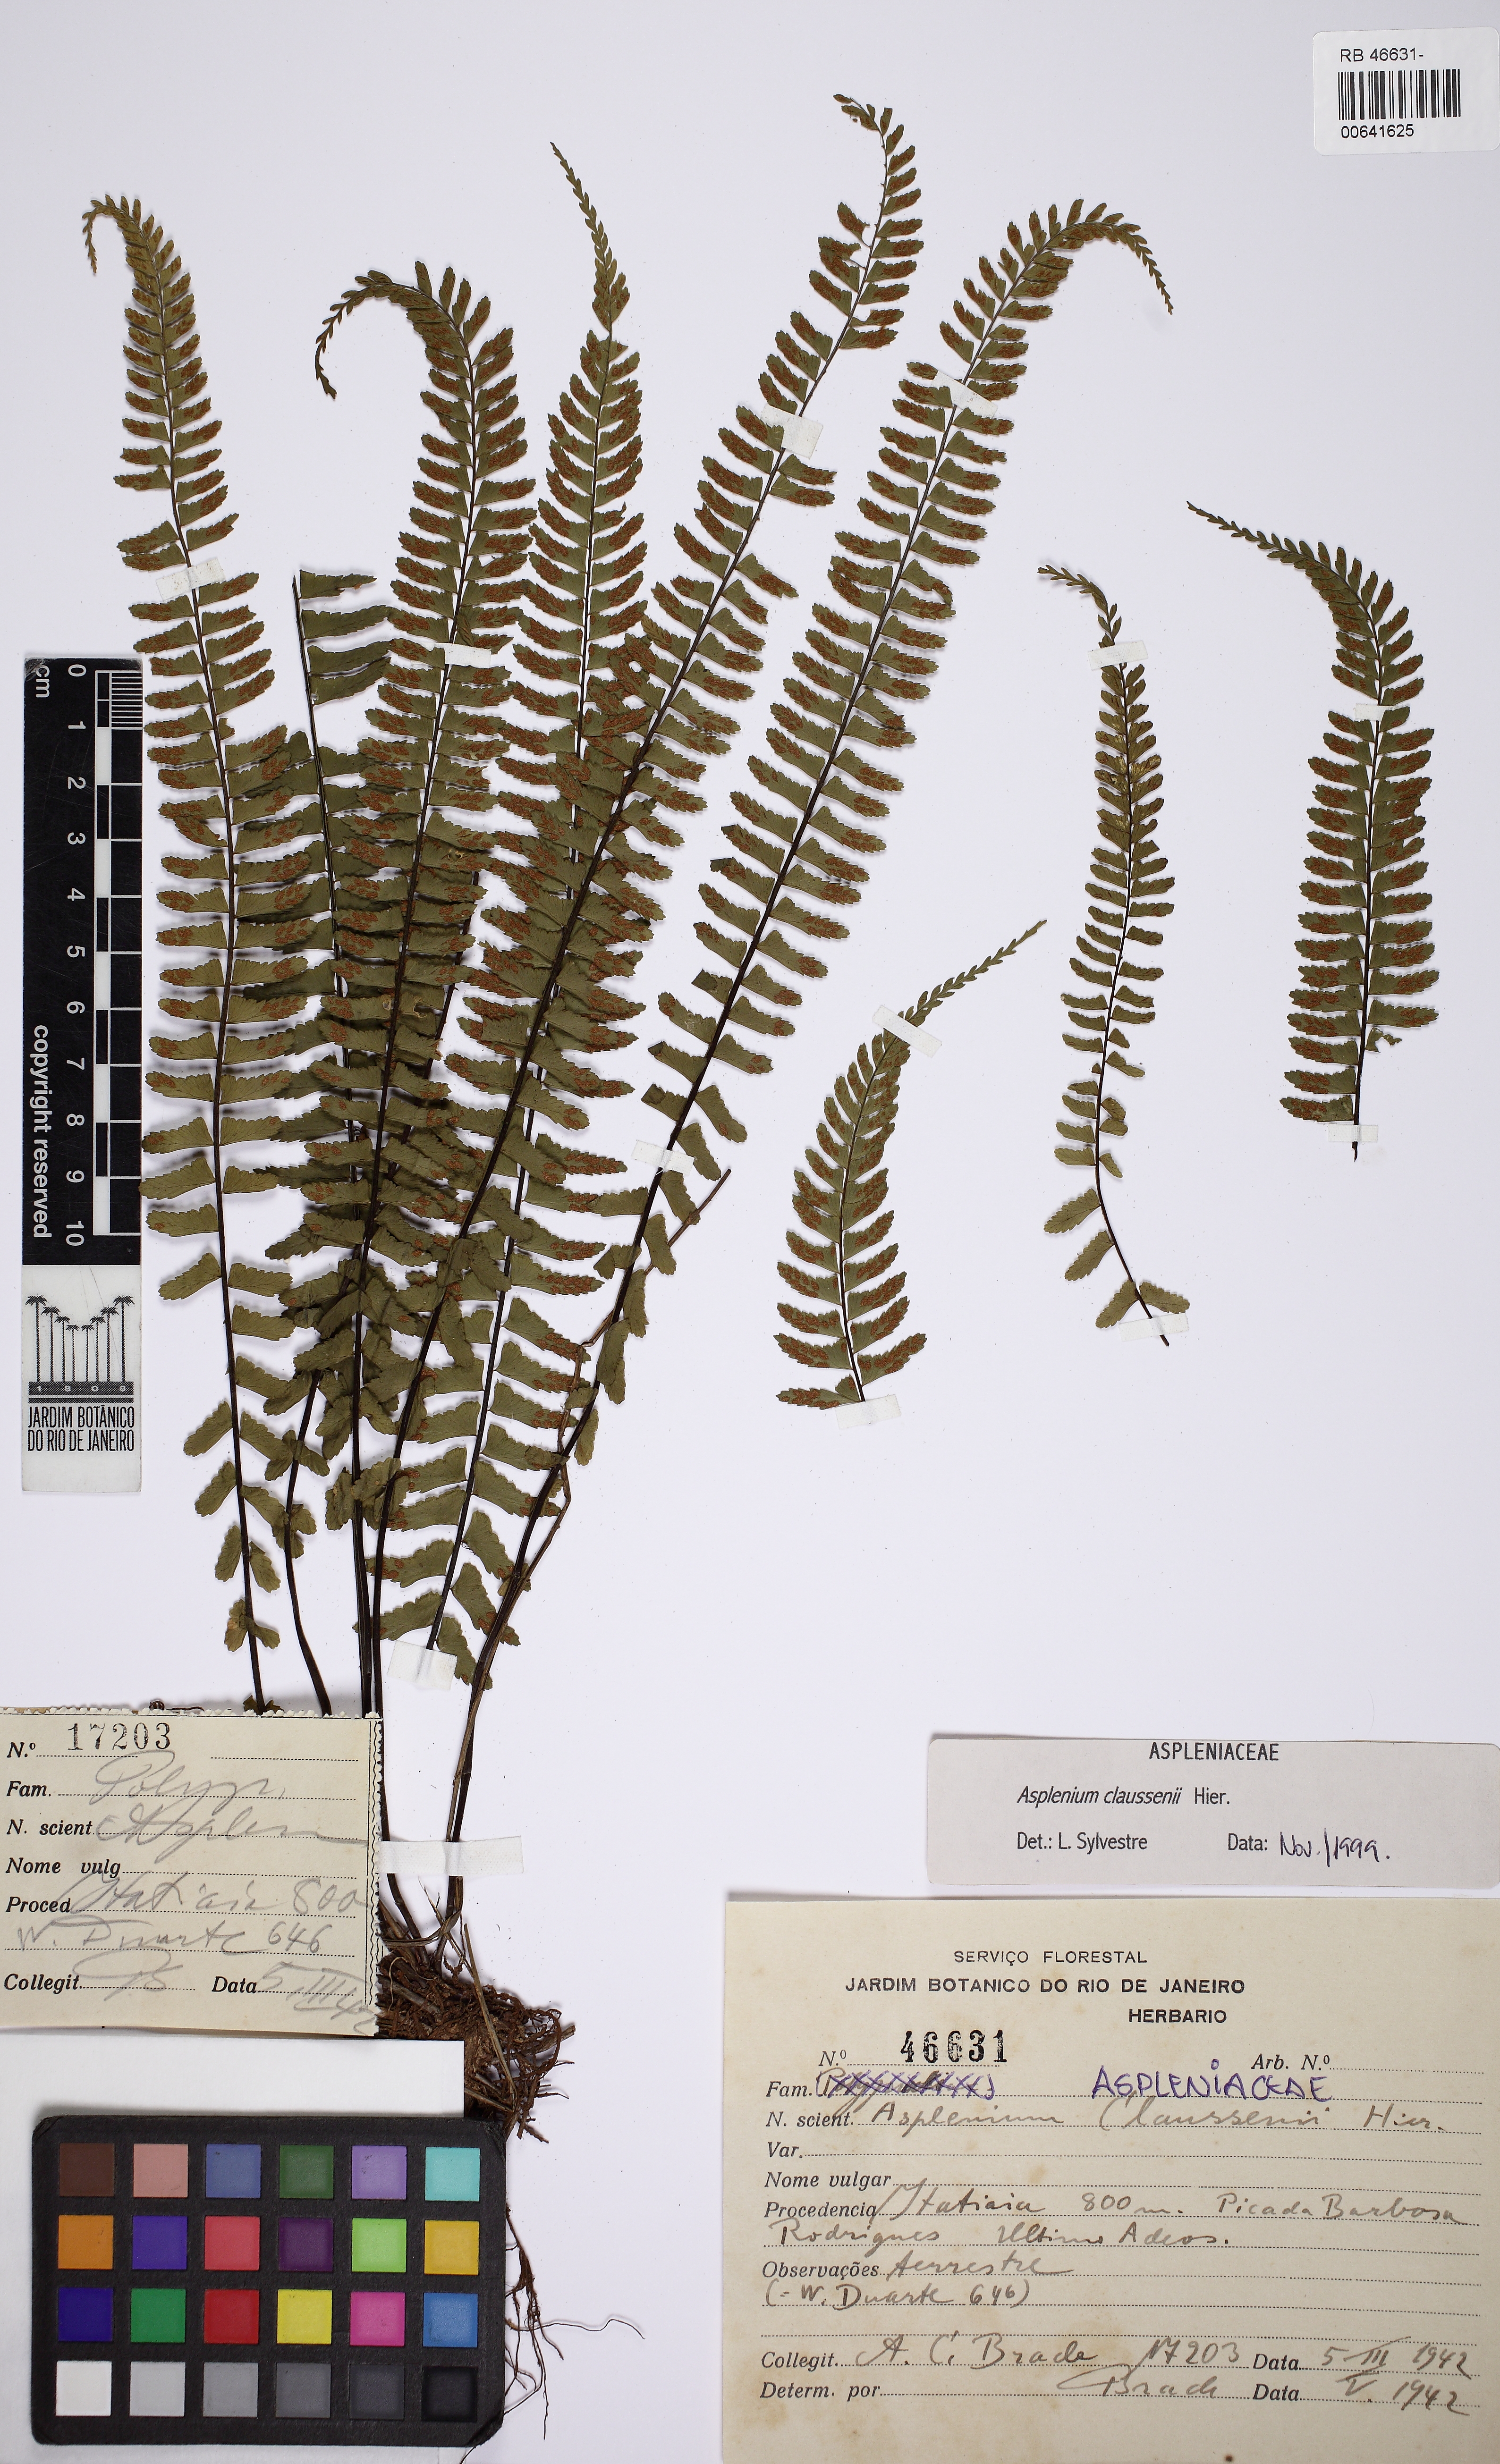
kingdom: Plantae
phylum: Tracheophyta
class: Polypodiopsida
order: Polypodiales
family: Aspleniaceae
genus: Asplenium
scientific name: Asplenium claussenii
